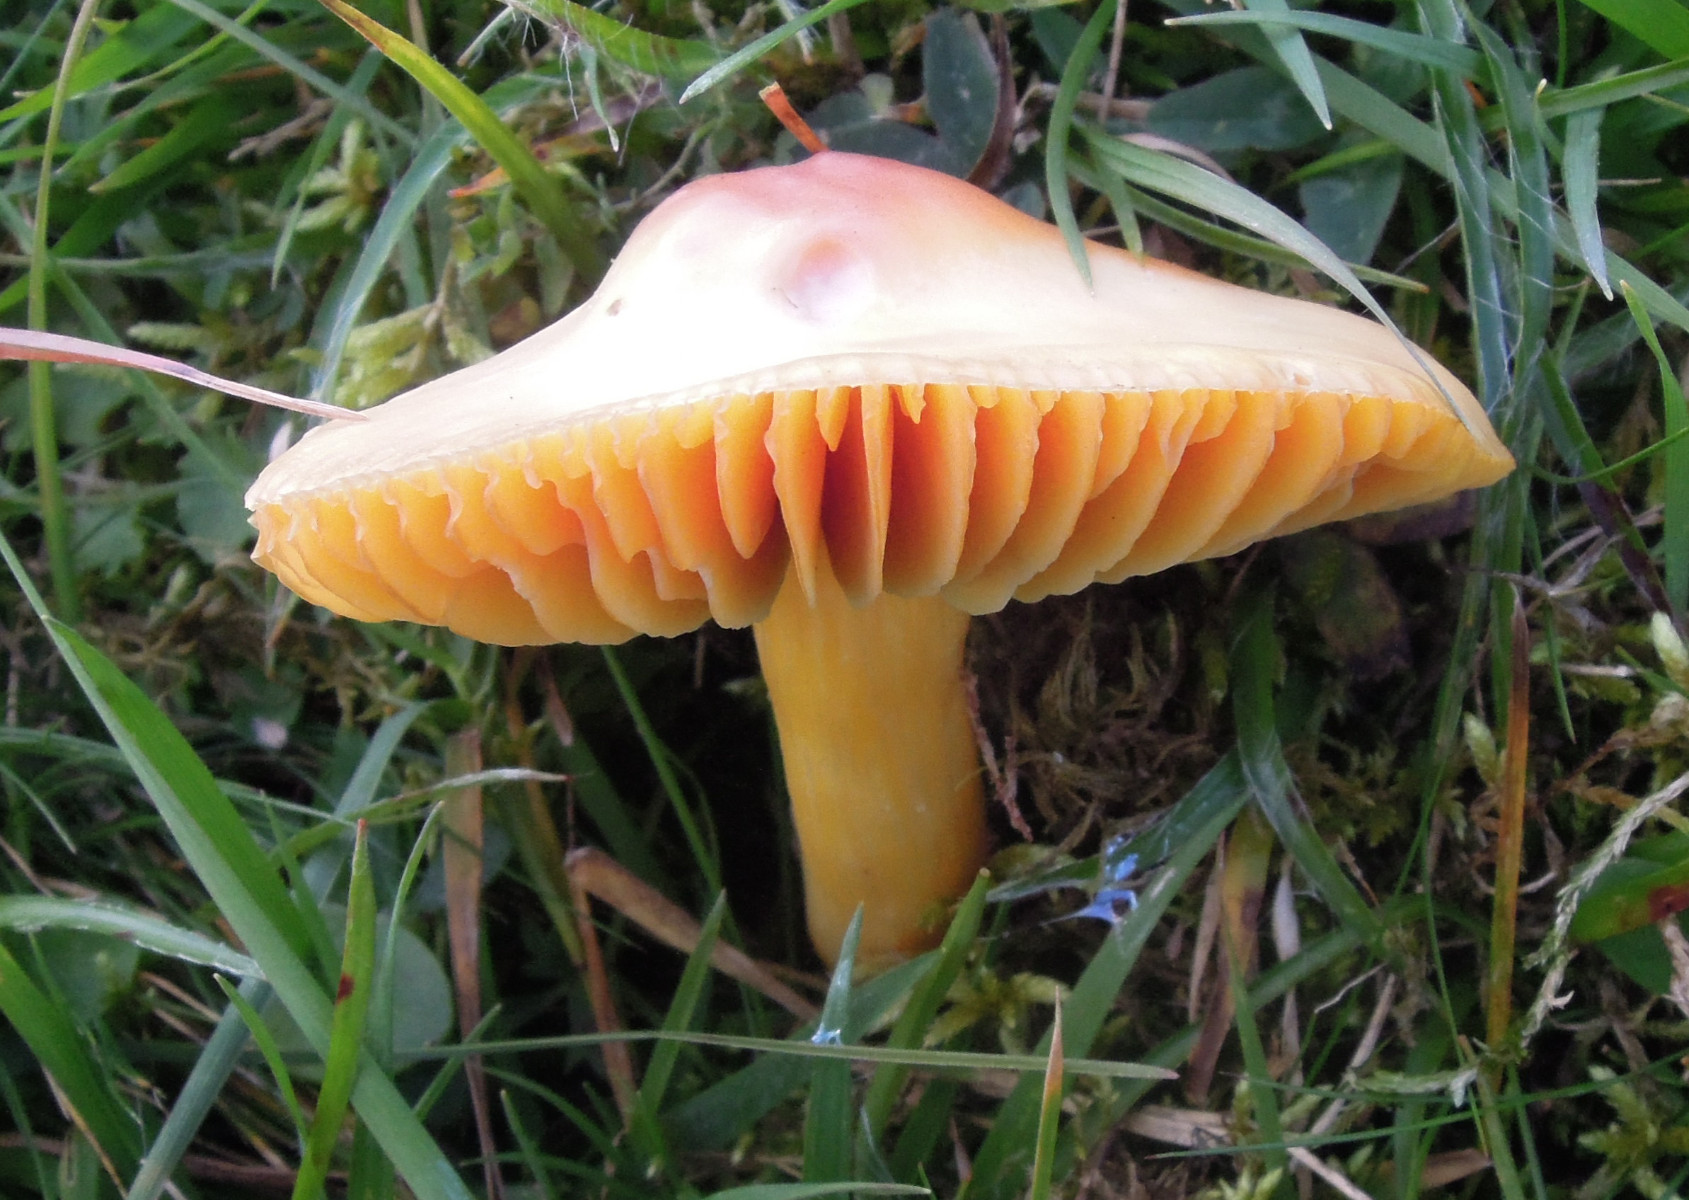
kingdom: Fungi
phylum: Basidiomycota
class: Agaricomycetes
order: Agaricales
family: Hygrophoraceae
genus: Hygrocybe
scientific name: Hygrocybe punicea
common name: skarlagen-vokshat
